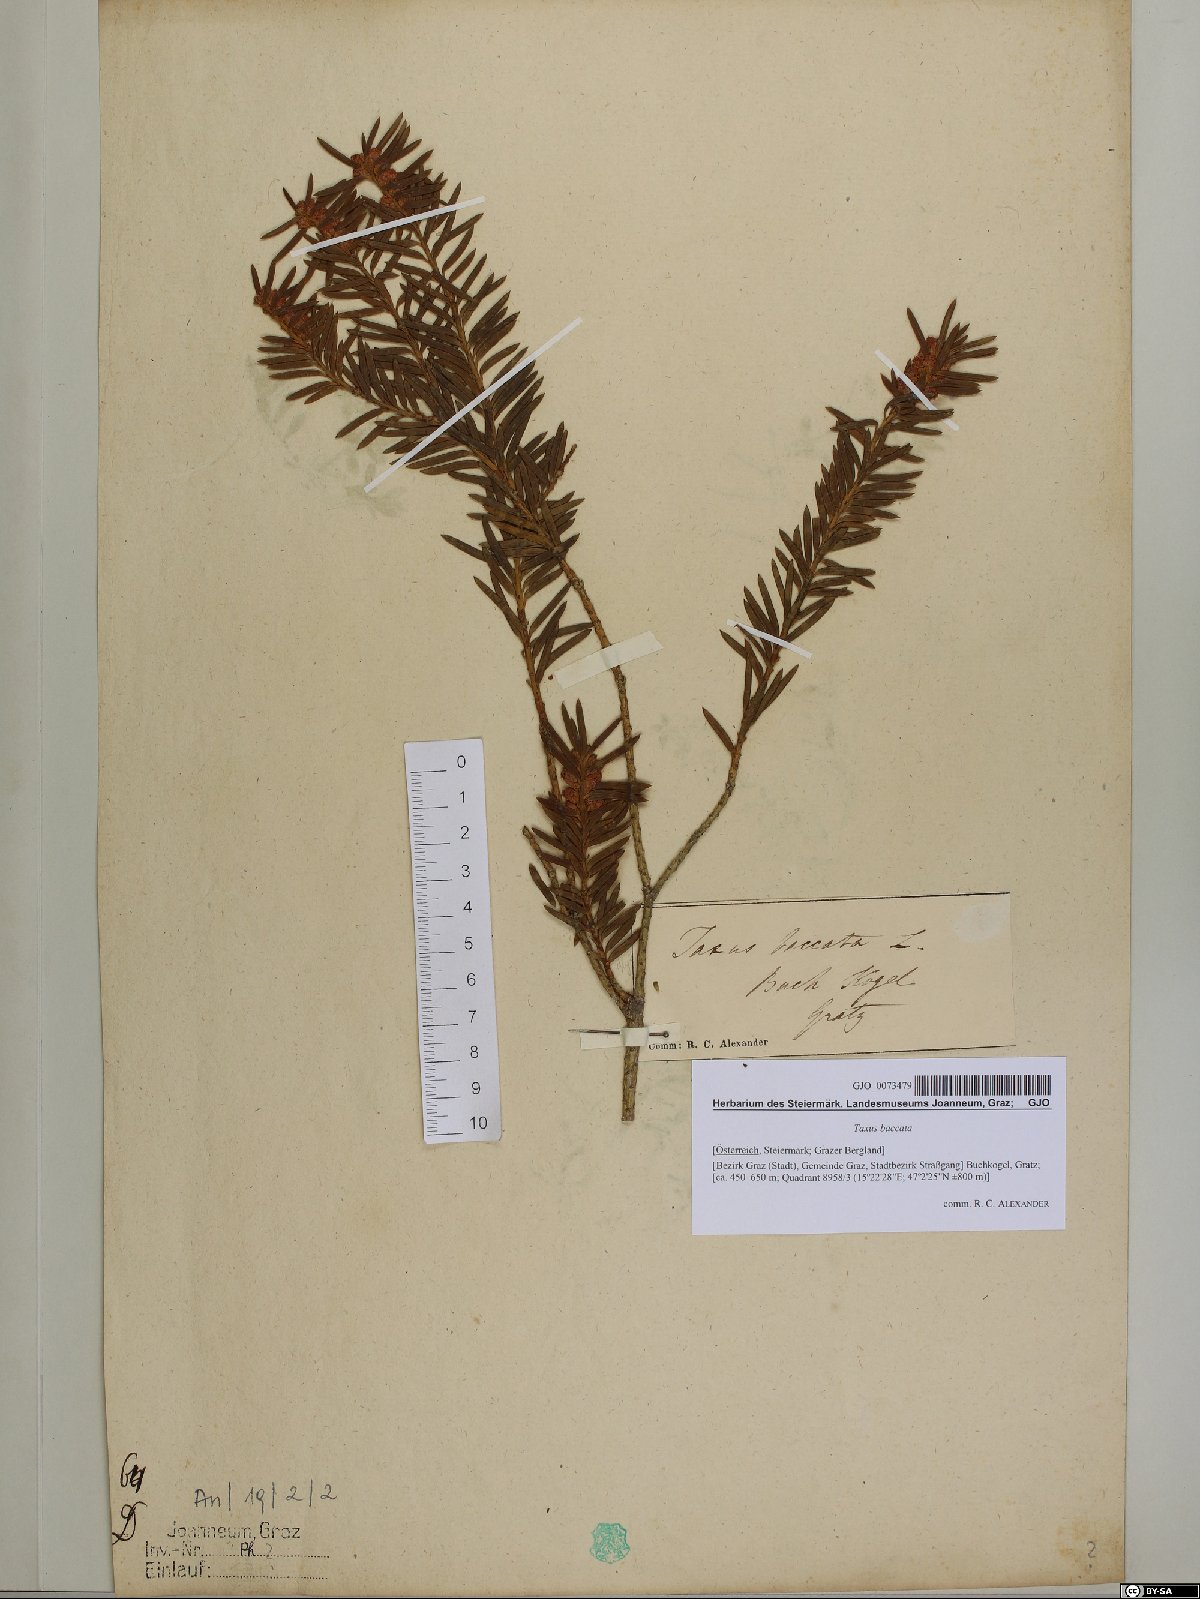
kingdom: Plantae
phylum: Tracheophyta
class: Pinopsida
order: Pinales
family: Taxaceae
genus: Taxus
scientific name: Taxus baccata
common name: Yew
